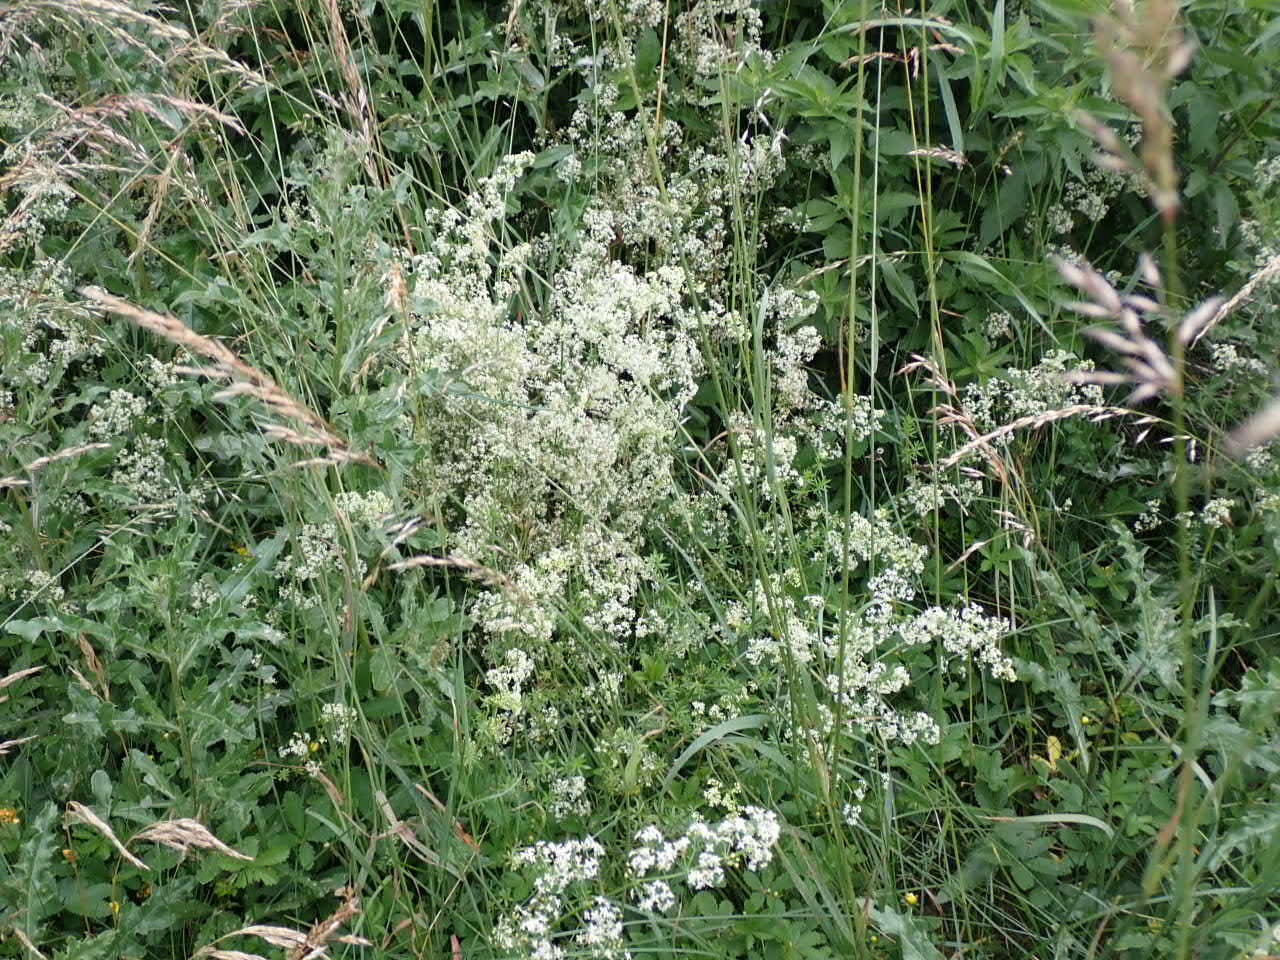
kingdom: Plantae
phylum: Tracheophyta
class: Magnoliopsida
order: Gentianales
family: Rubiaceae
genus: Galium
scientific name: Galium mollugo
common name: Hvid snerre
